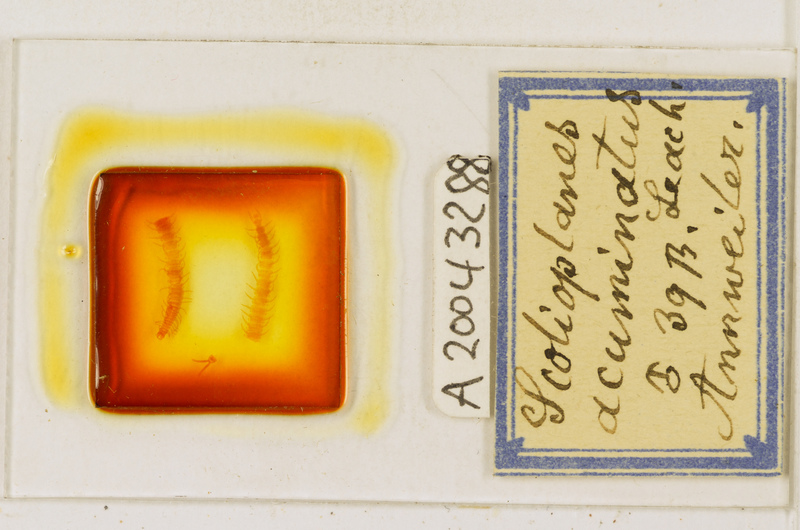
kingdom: Animalia
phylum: Arthropoda
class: Chilopoda
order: Geophilomorpha
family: Linotaeniidae
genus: Strigamia
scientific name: Strigamia acuminata
